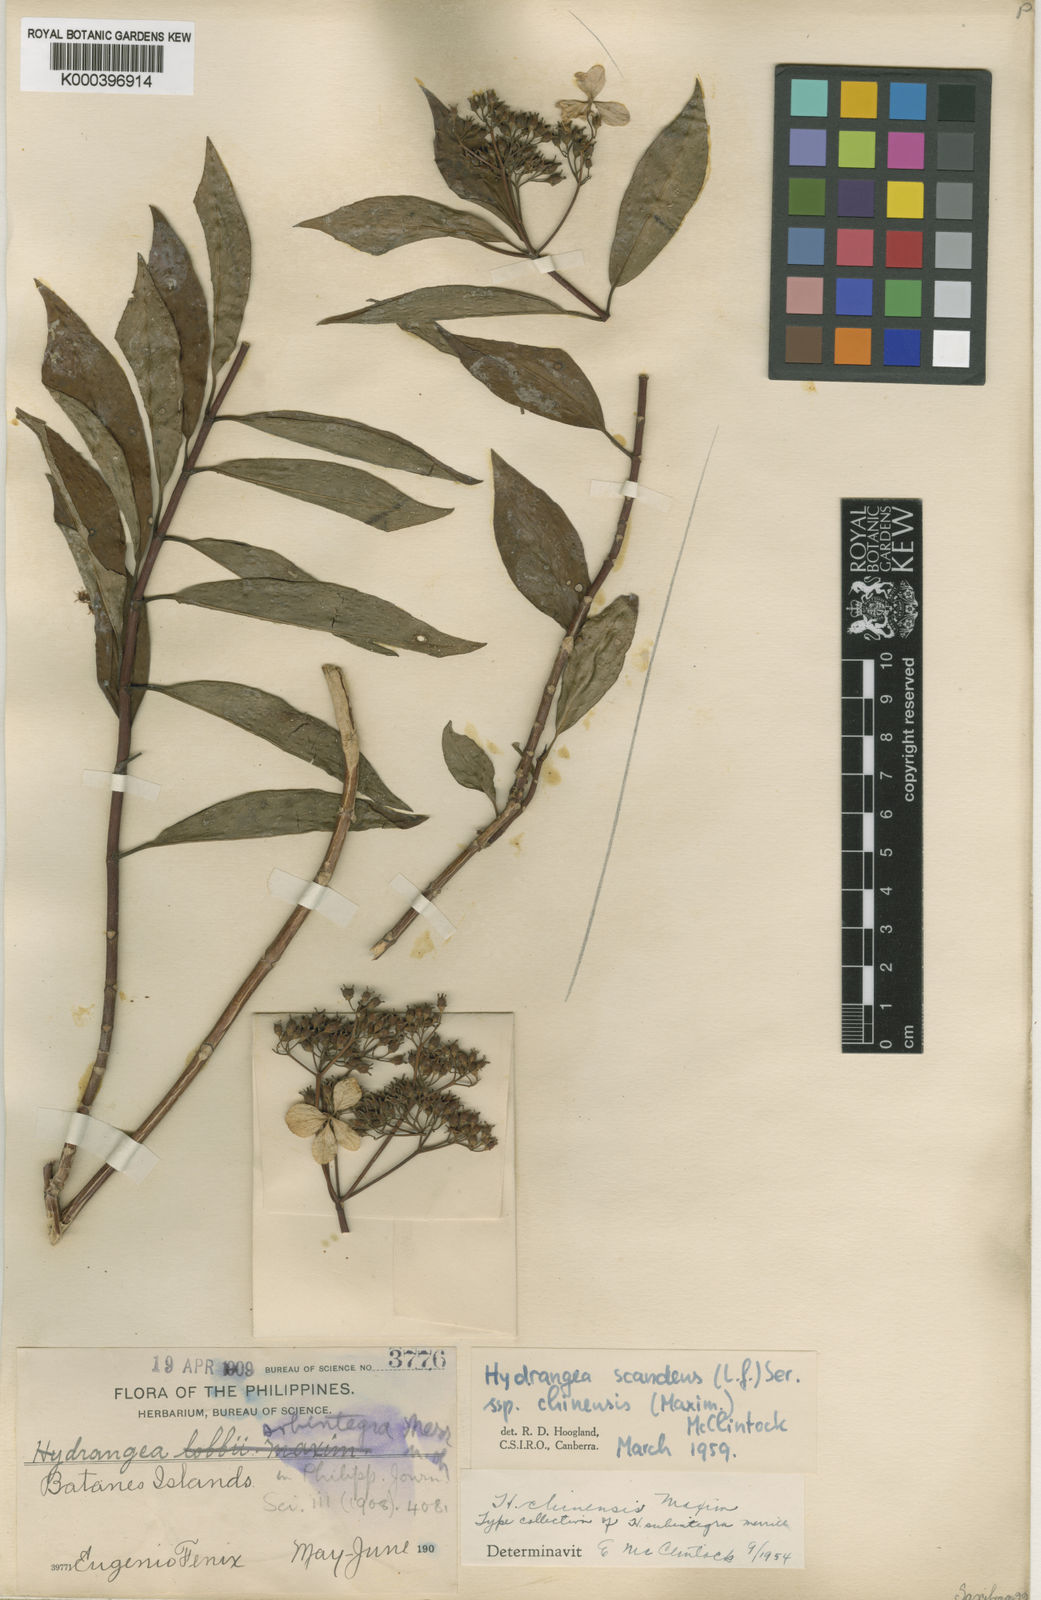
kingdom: Plantae
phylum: Tracheophyta
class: Magnoliopsida
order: Cornales
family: Hydrangeaceae
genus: Hydrangea
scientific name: Hydrangea scandens
